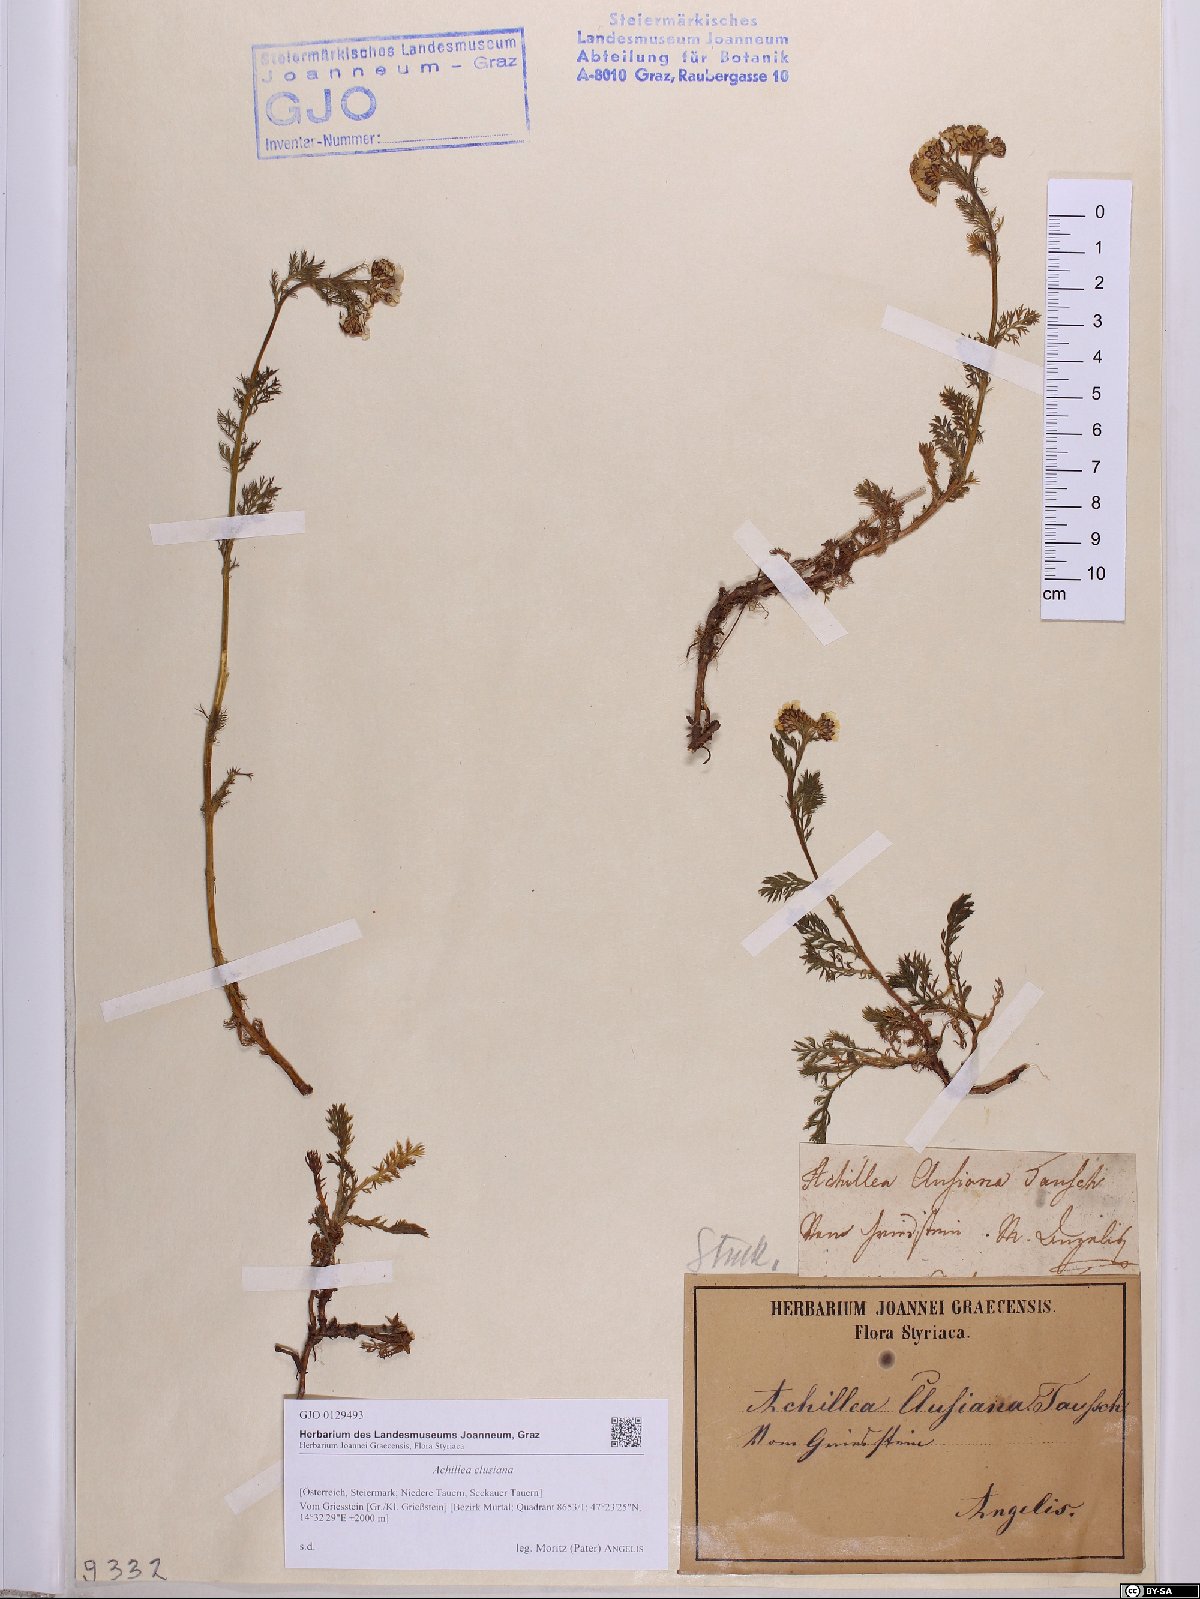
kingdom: Plantae
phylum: Tracheophyta
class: Magnoliopsida
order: Asterales
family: Asteraceae
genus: Achillea
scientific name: Achillea clusiana
